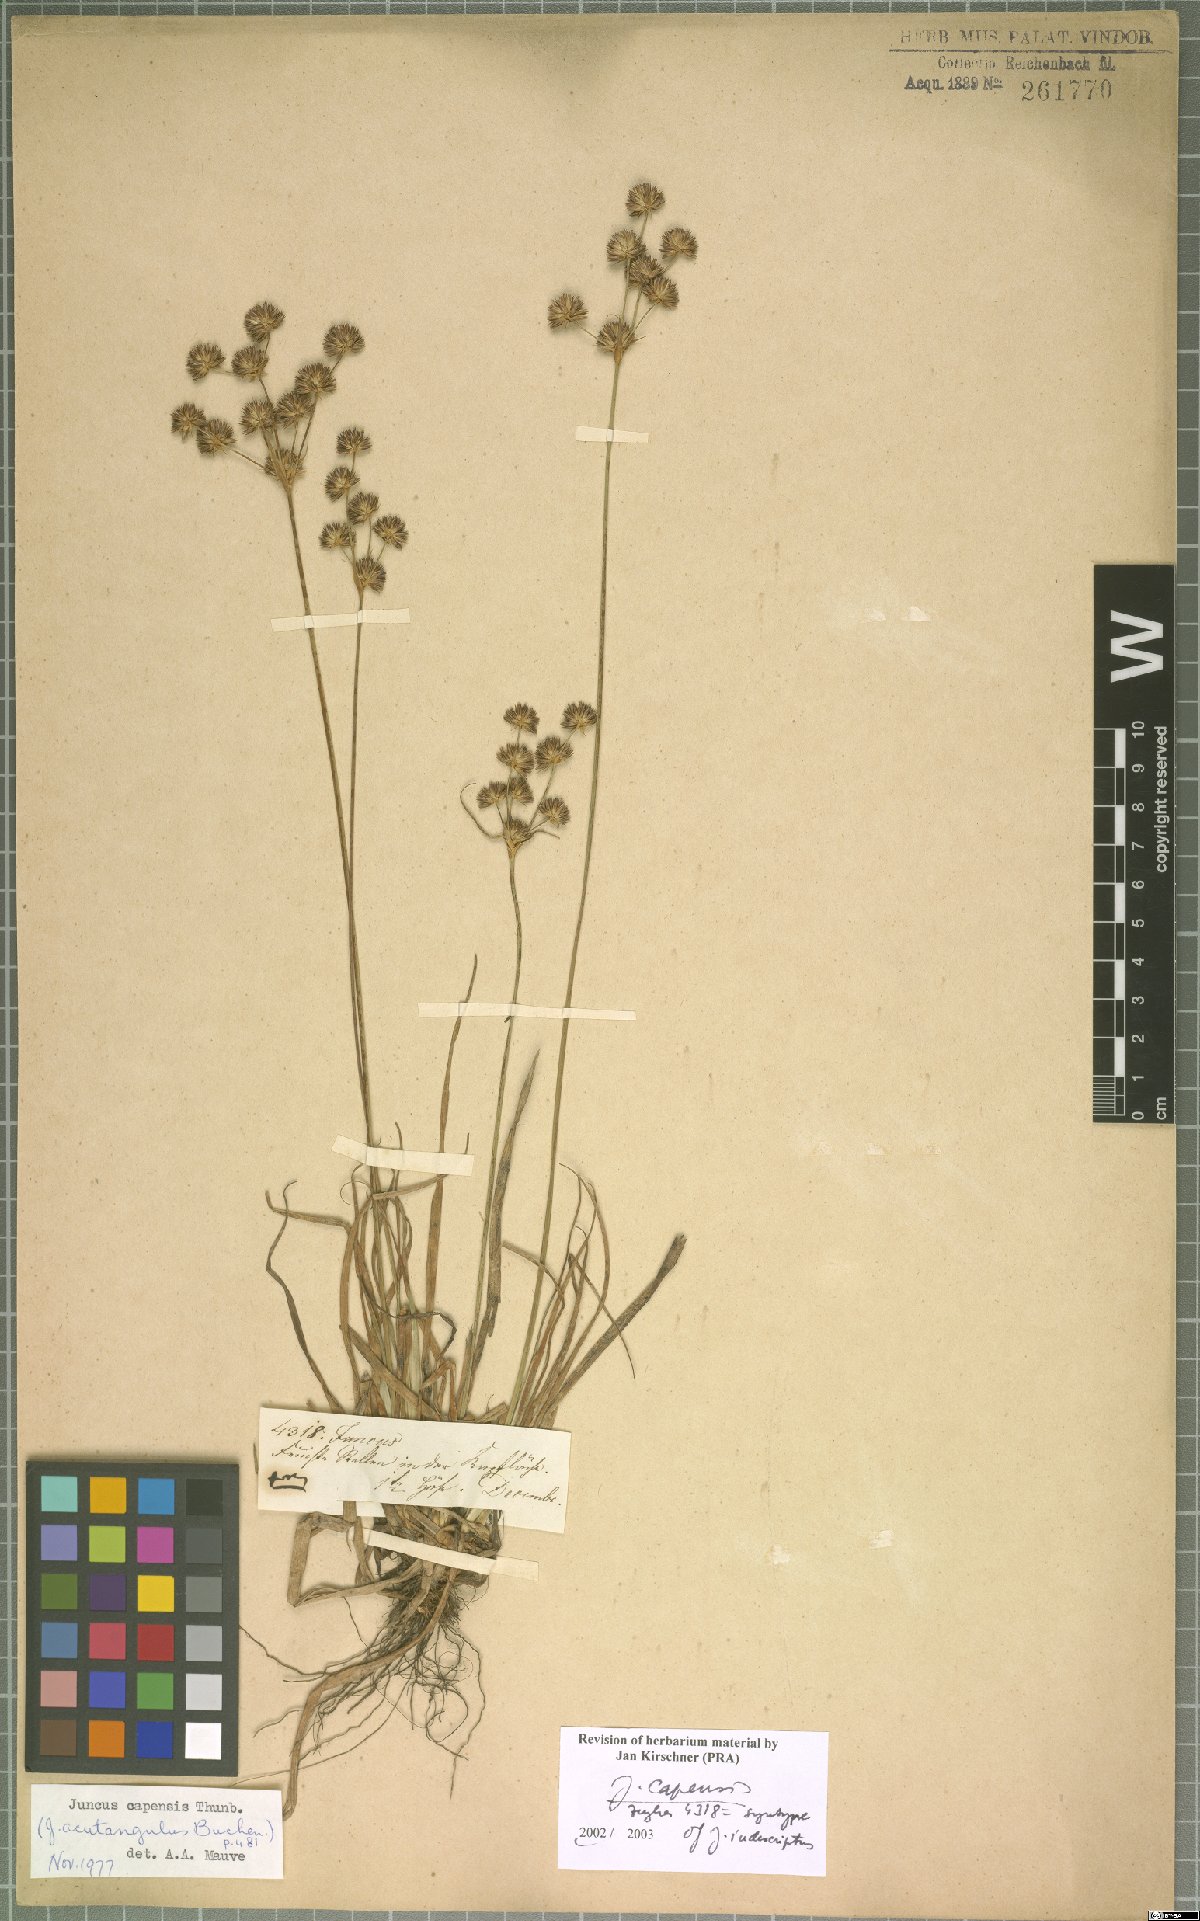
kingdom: Plantae
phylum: Tracheophyta
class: Liliopsida
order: Poales
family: Juncaceae
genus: Juncus
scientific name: Juncus capensis
